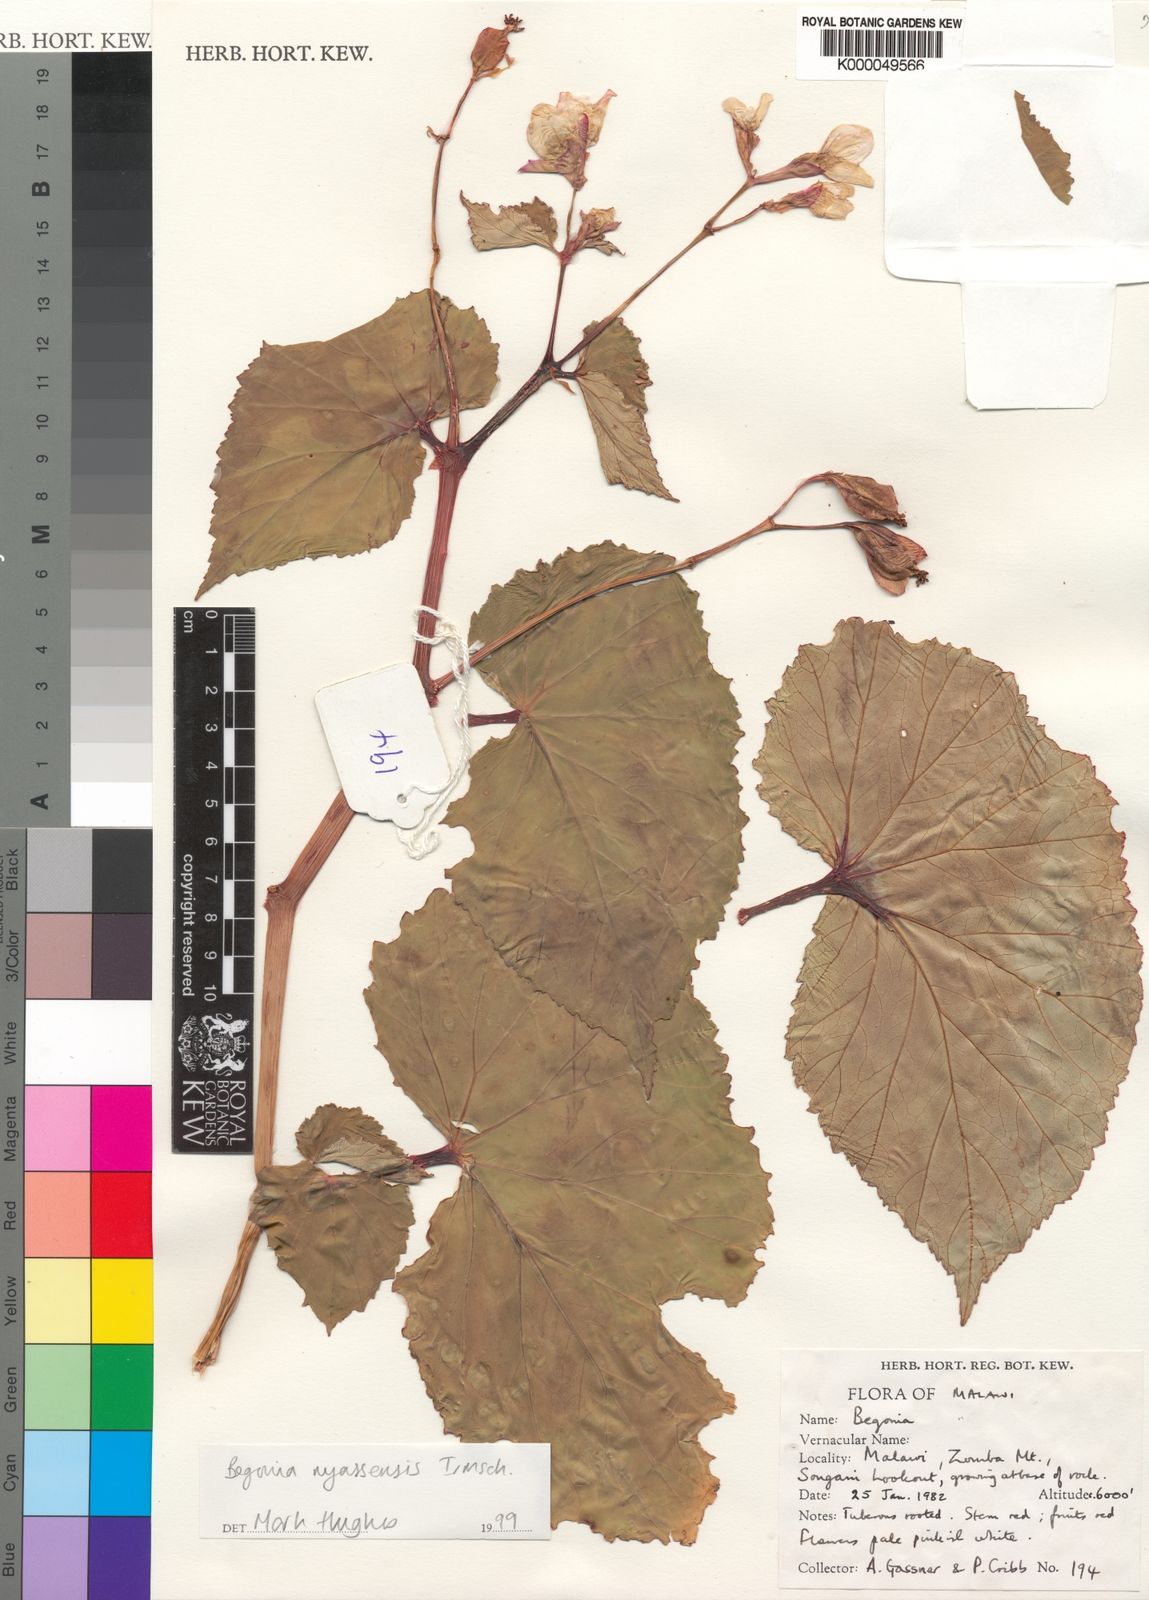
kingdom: Plantae
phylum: Tracheophyta
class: Magnoliopsida
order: Cucurbitales
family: Begoniaceae
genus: Begonia
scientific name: Begonia nyassensis
